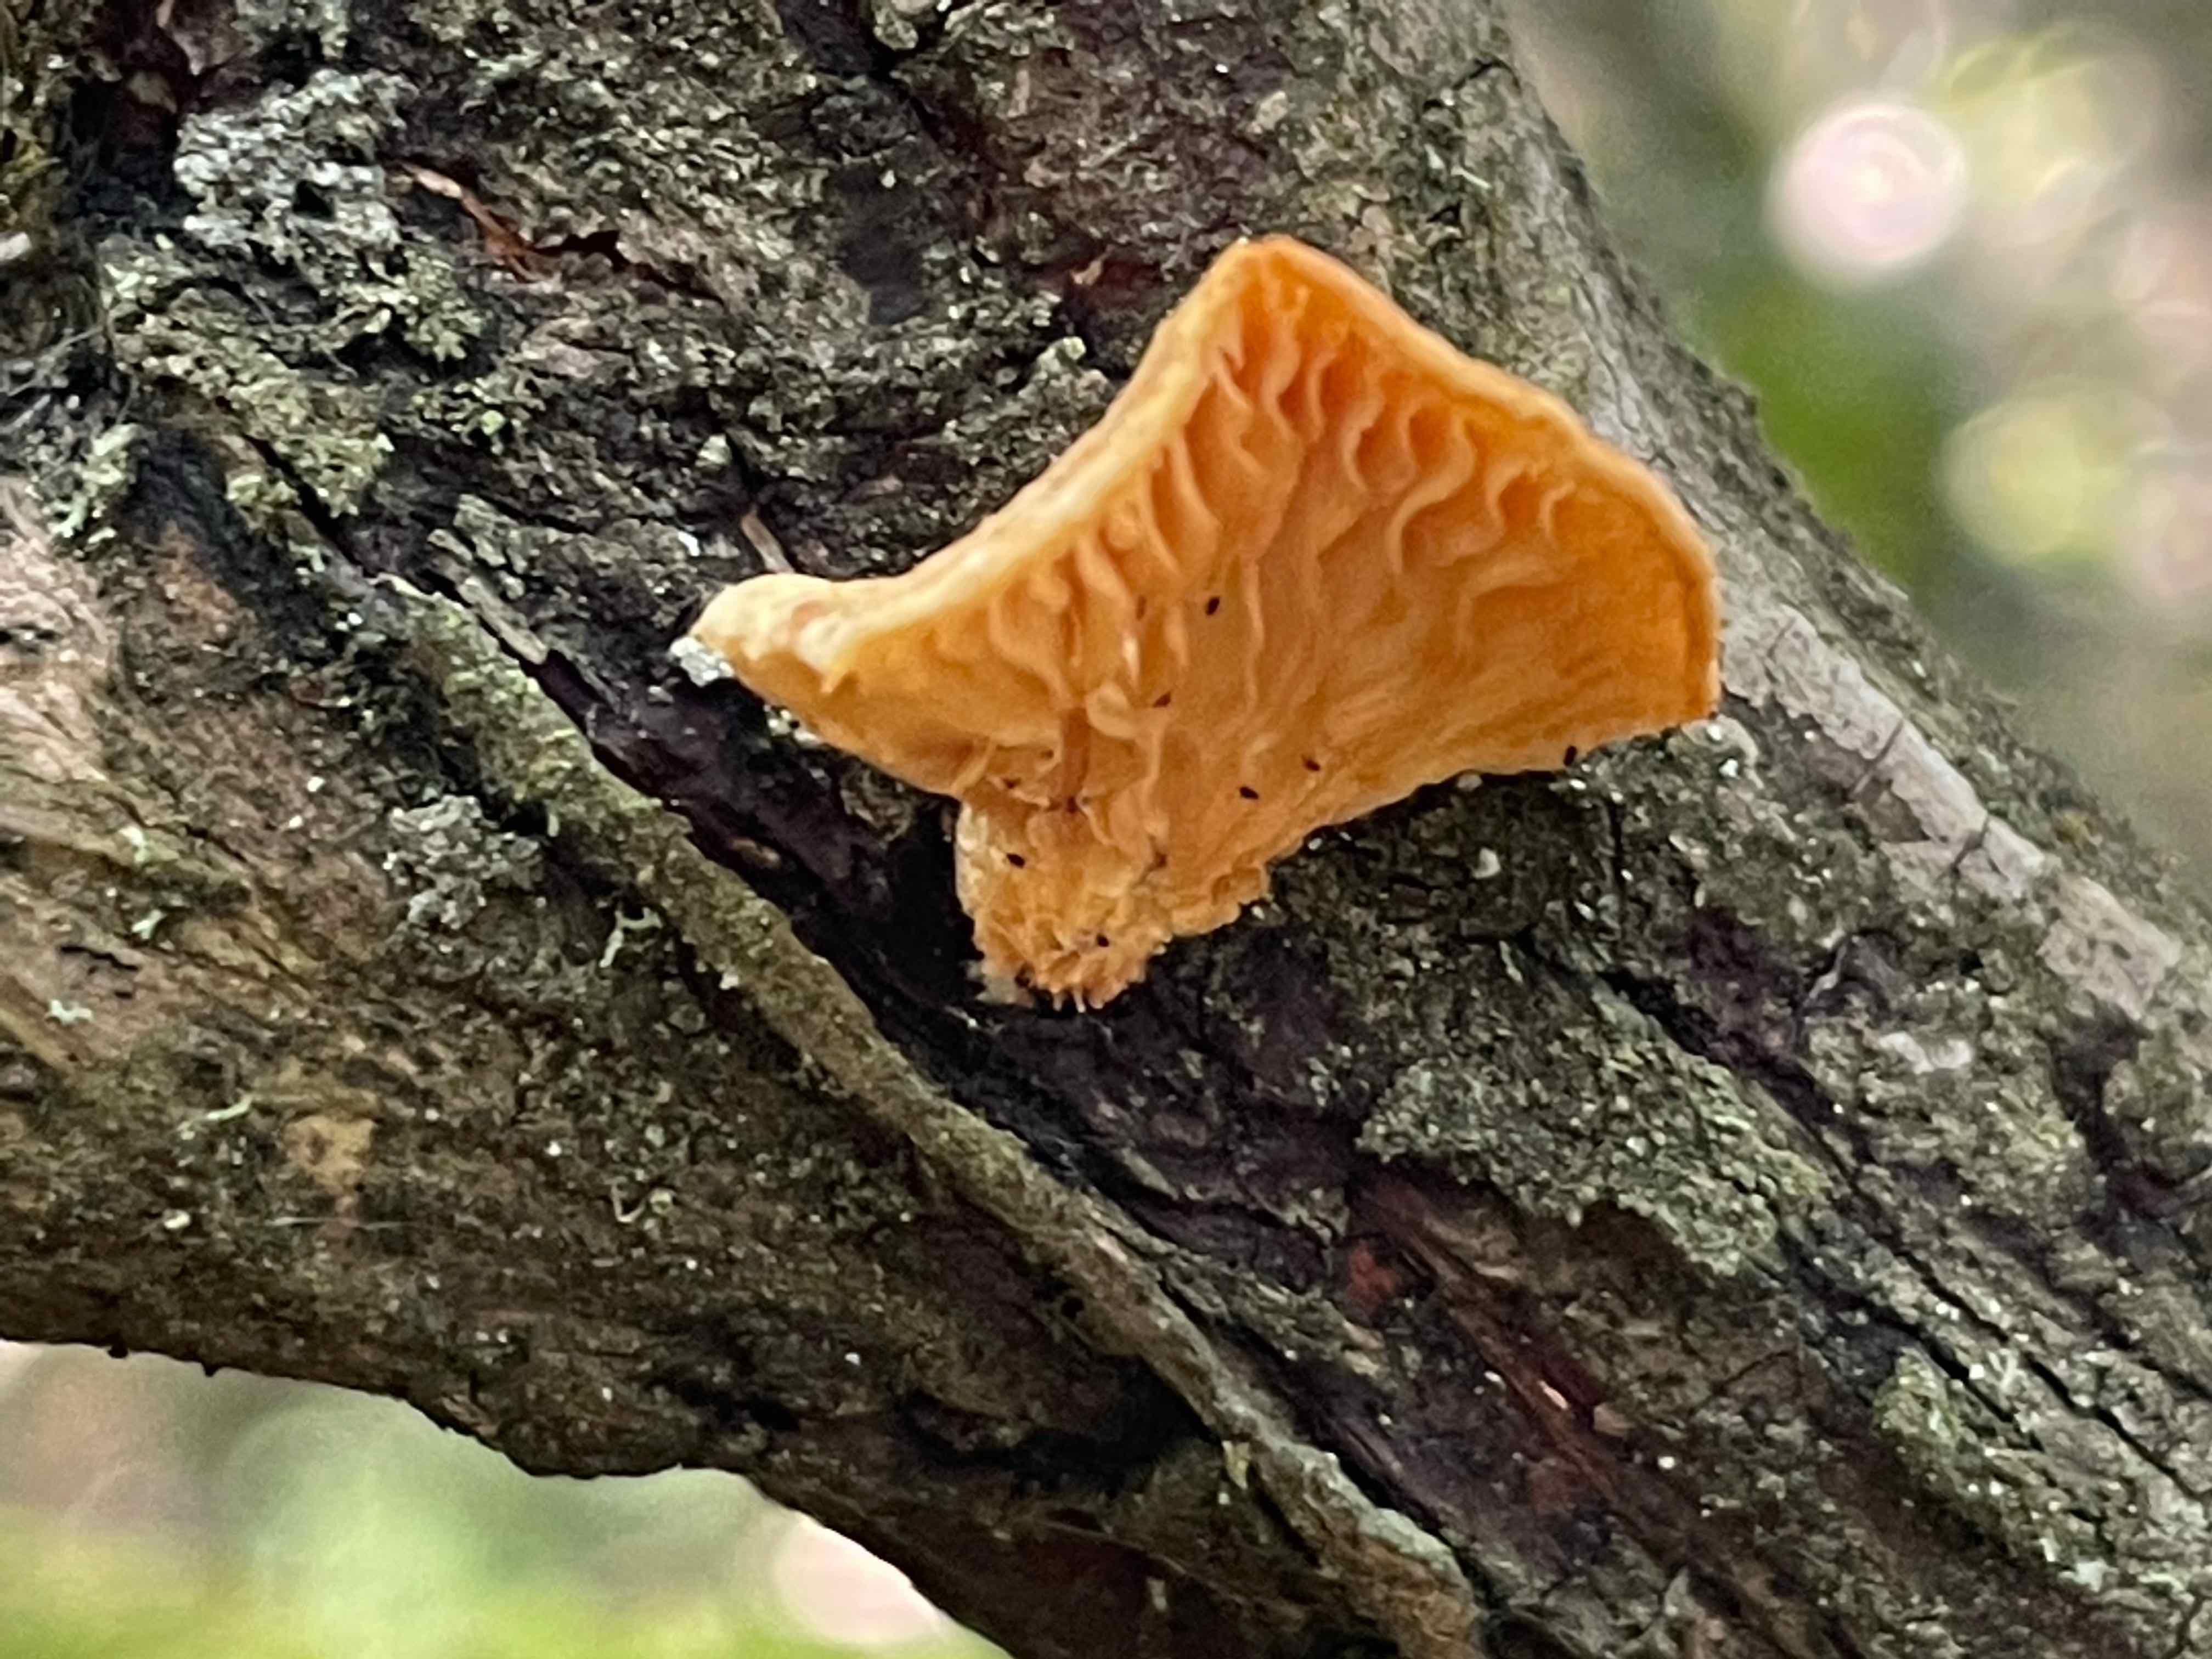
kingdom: Fungi
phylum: Basidiomycota
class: Agaricomycetes
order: Polyporales
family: Polyporaceae
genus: Neofavolus
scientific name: Neofavolus suavissimus
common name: anishat
